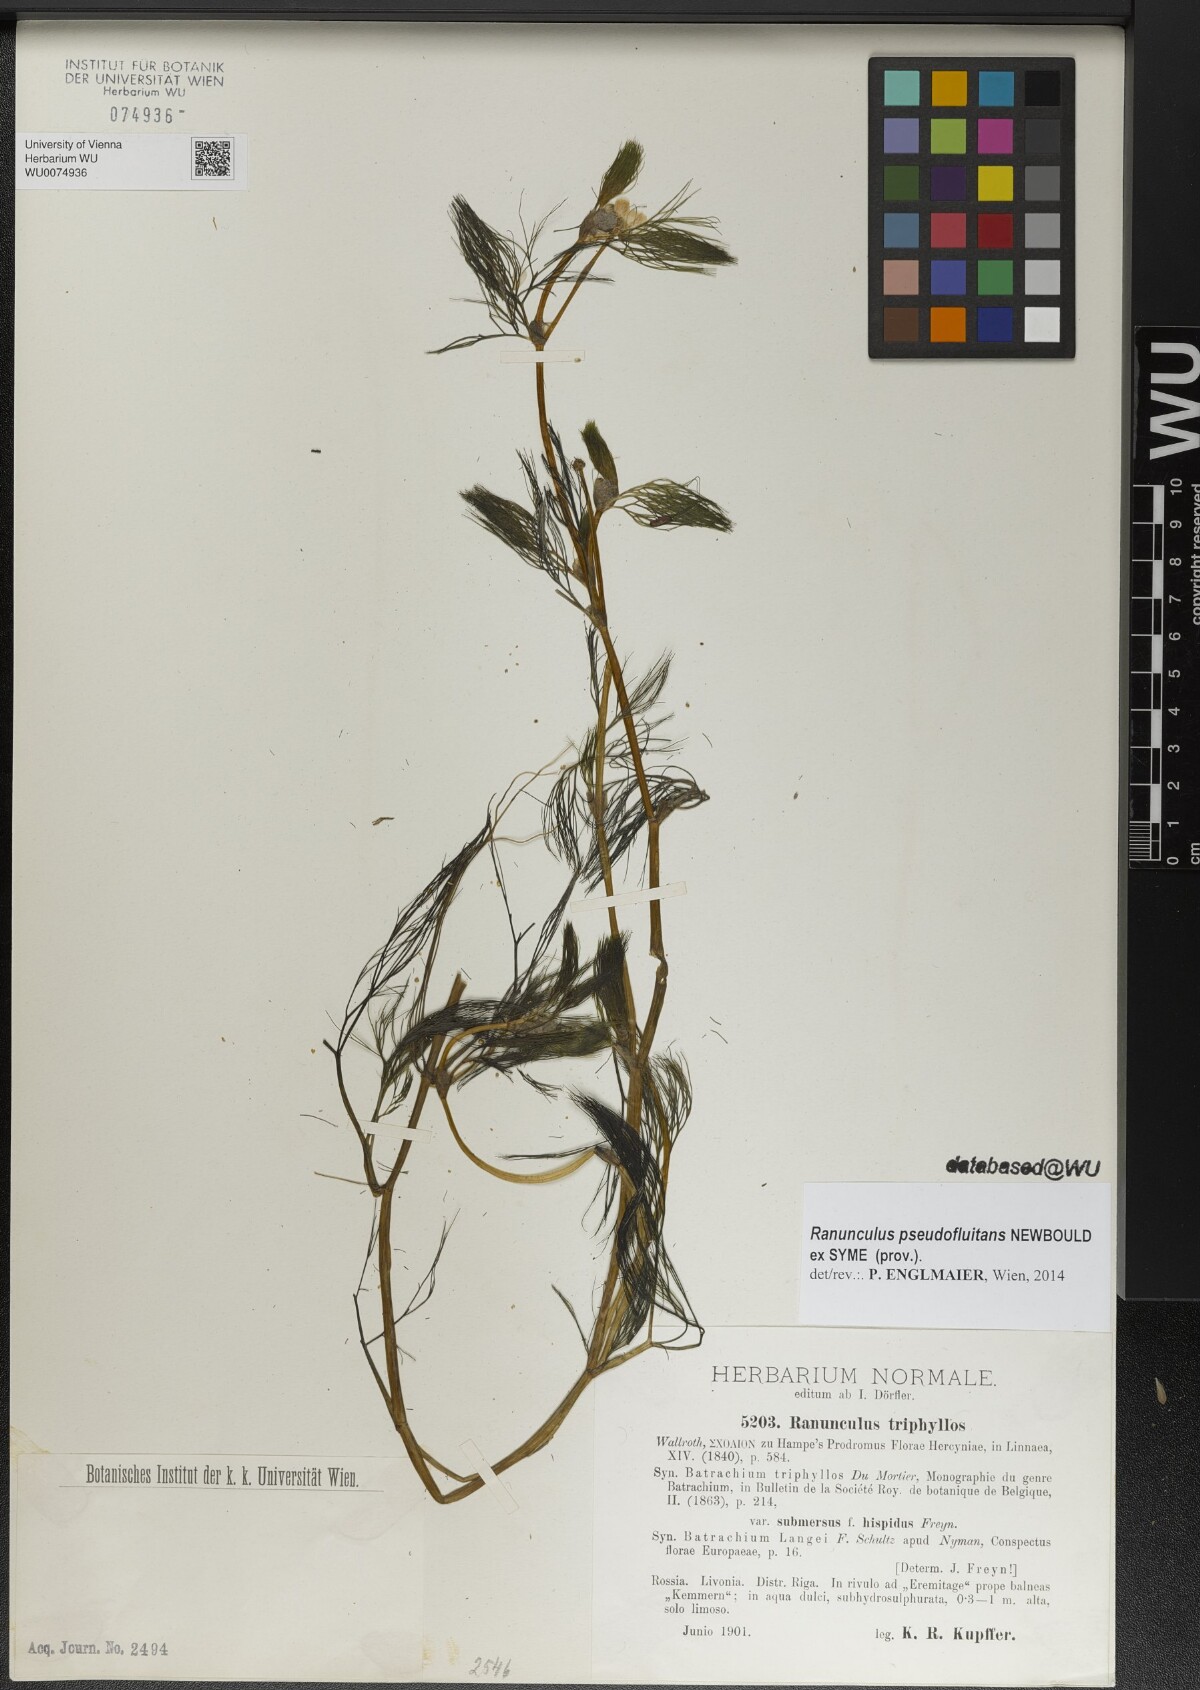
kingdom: Plantae
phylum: Tracheophyta
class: Magnoliopsida
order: Ranunculales
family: Ranunculaceae
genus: Ranunculus
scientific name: Ranunculus penicillatus
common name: Stream water-crowfoot
